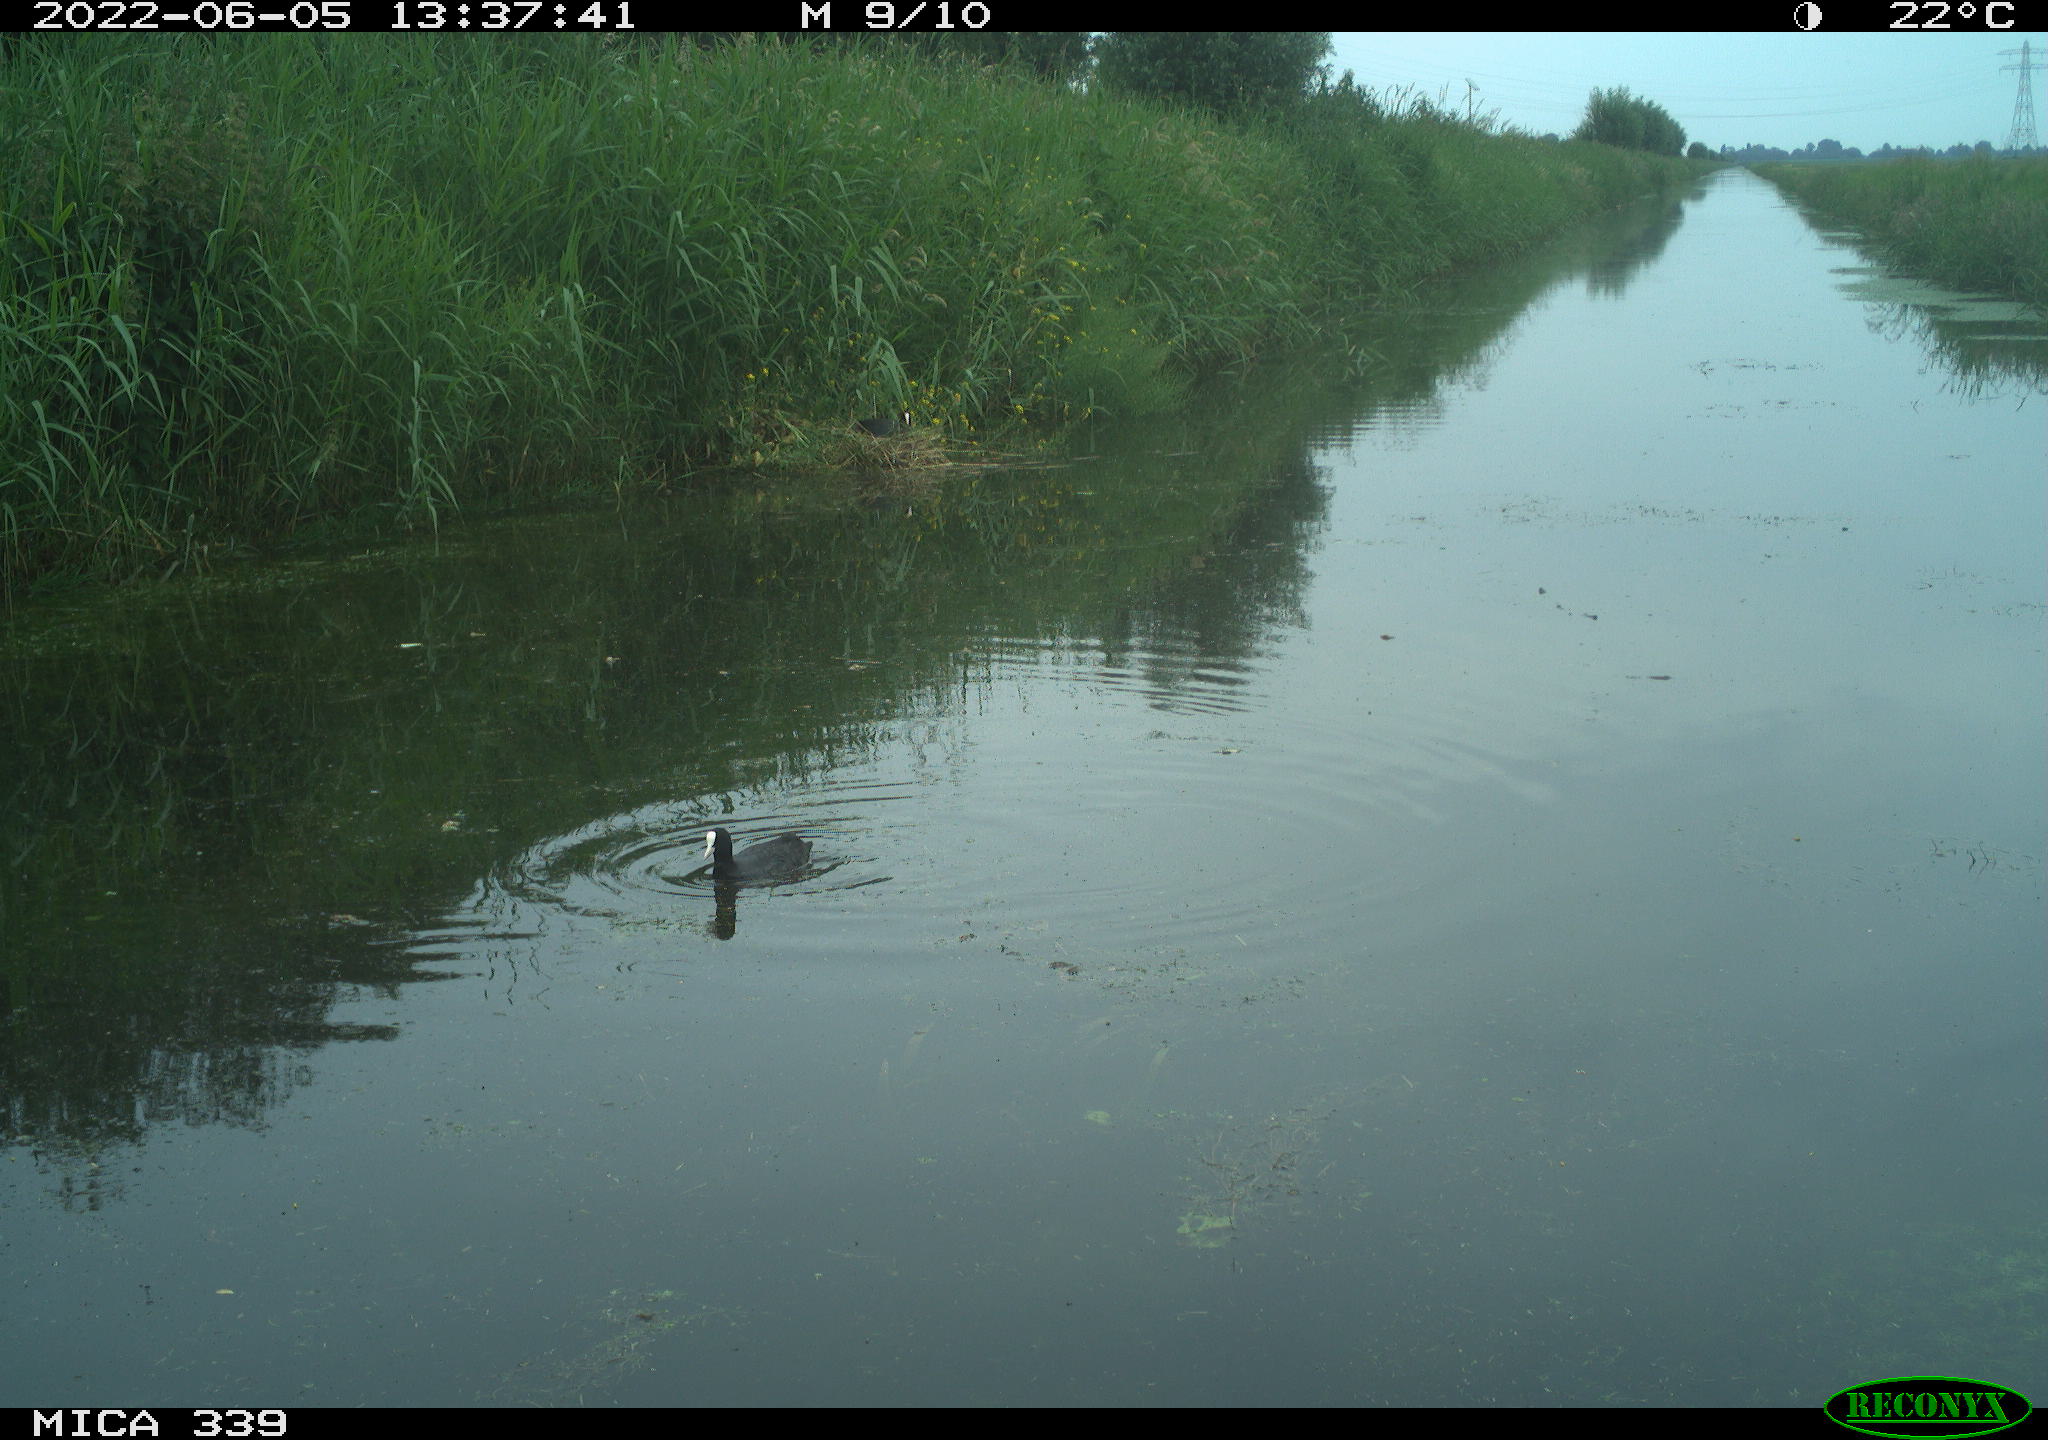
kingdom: Animalia
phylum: Chordata
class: Aves
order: Gruiformes
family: Rallidae
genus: Fulica
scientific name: Fulica atra
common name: Eurasian coot
